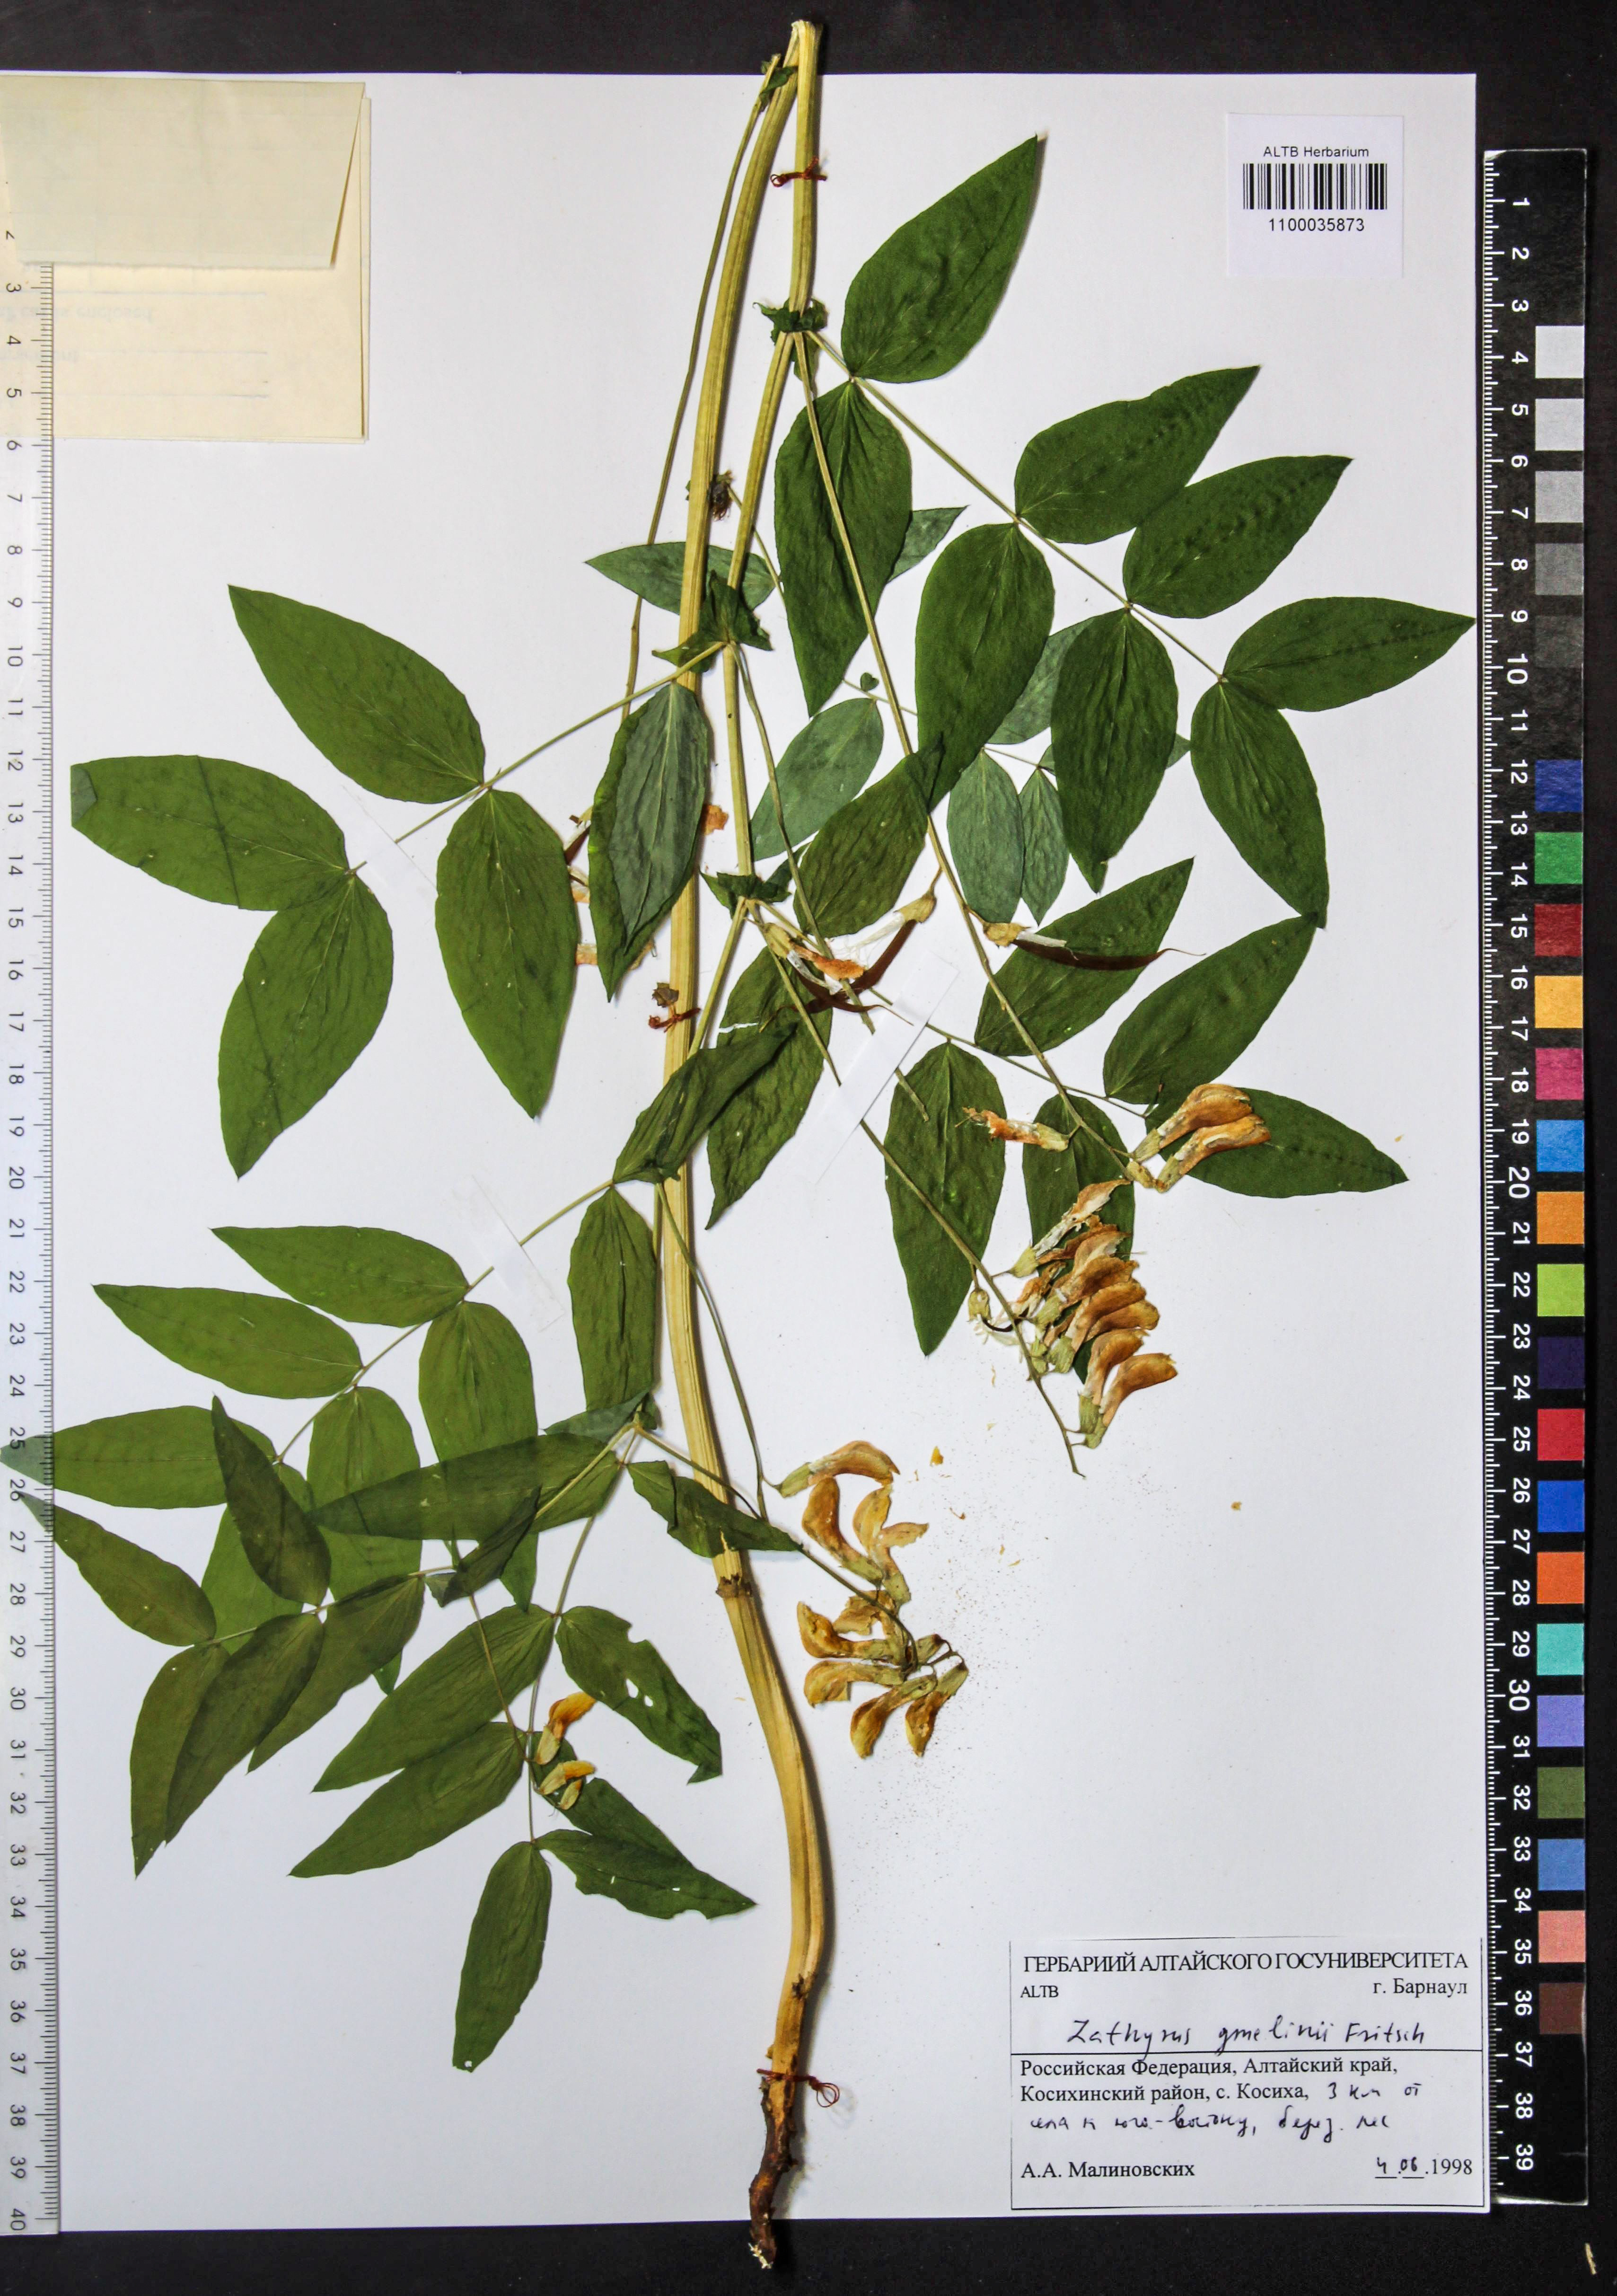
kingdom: Plantae
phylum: Tracheophyta
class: Magnoliopsida
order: Fabales
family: Fabaceae
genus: Lathyrus
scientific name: Lathyrus gmelinii
